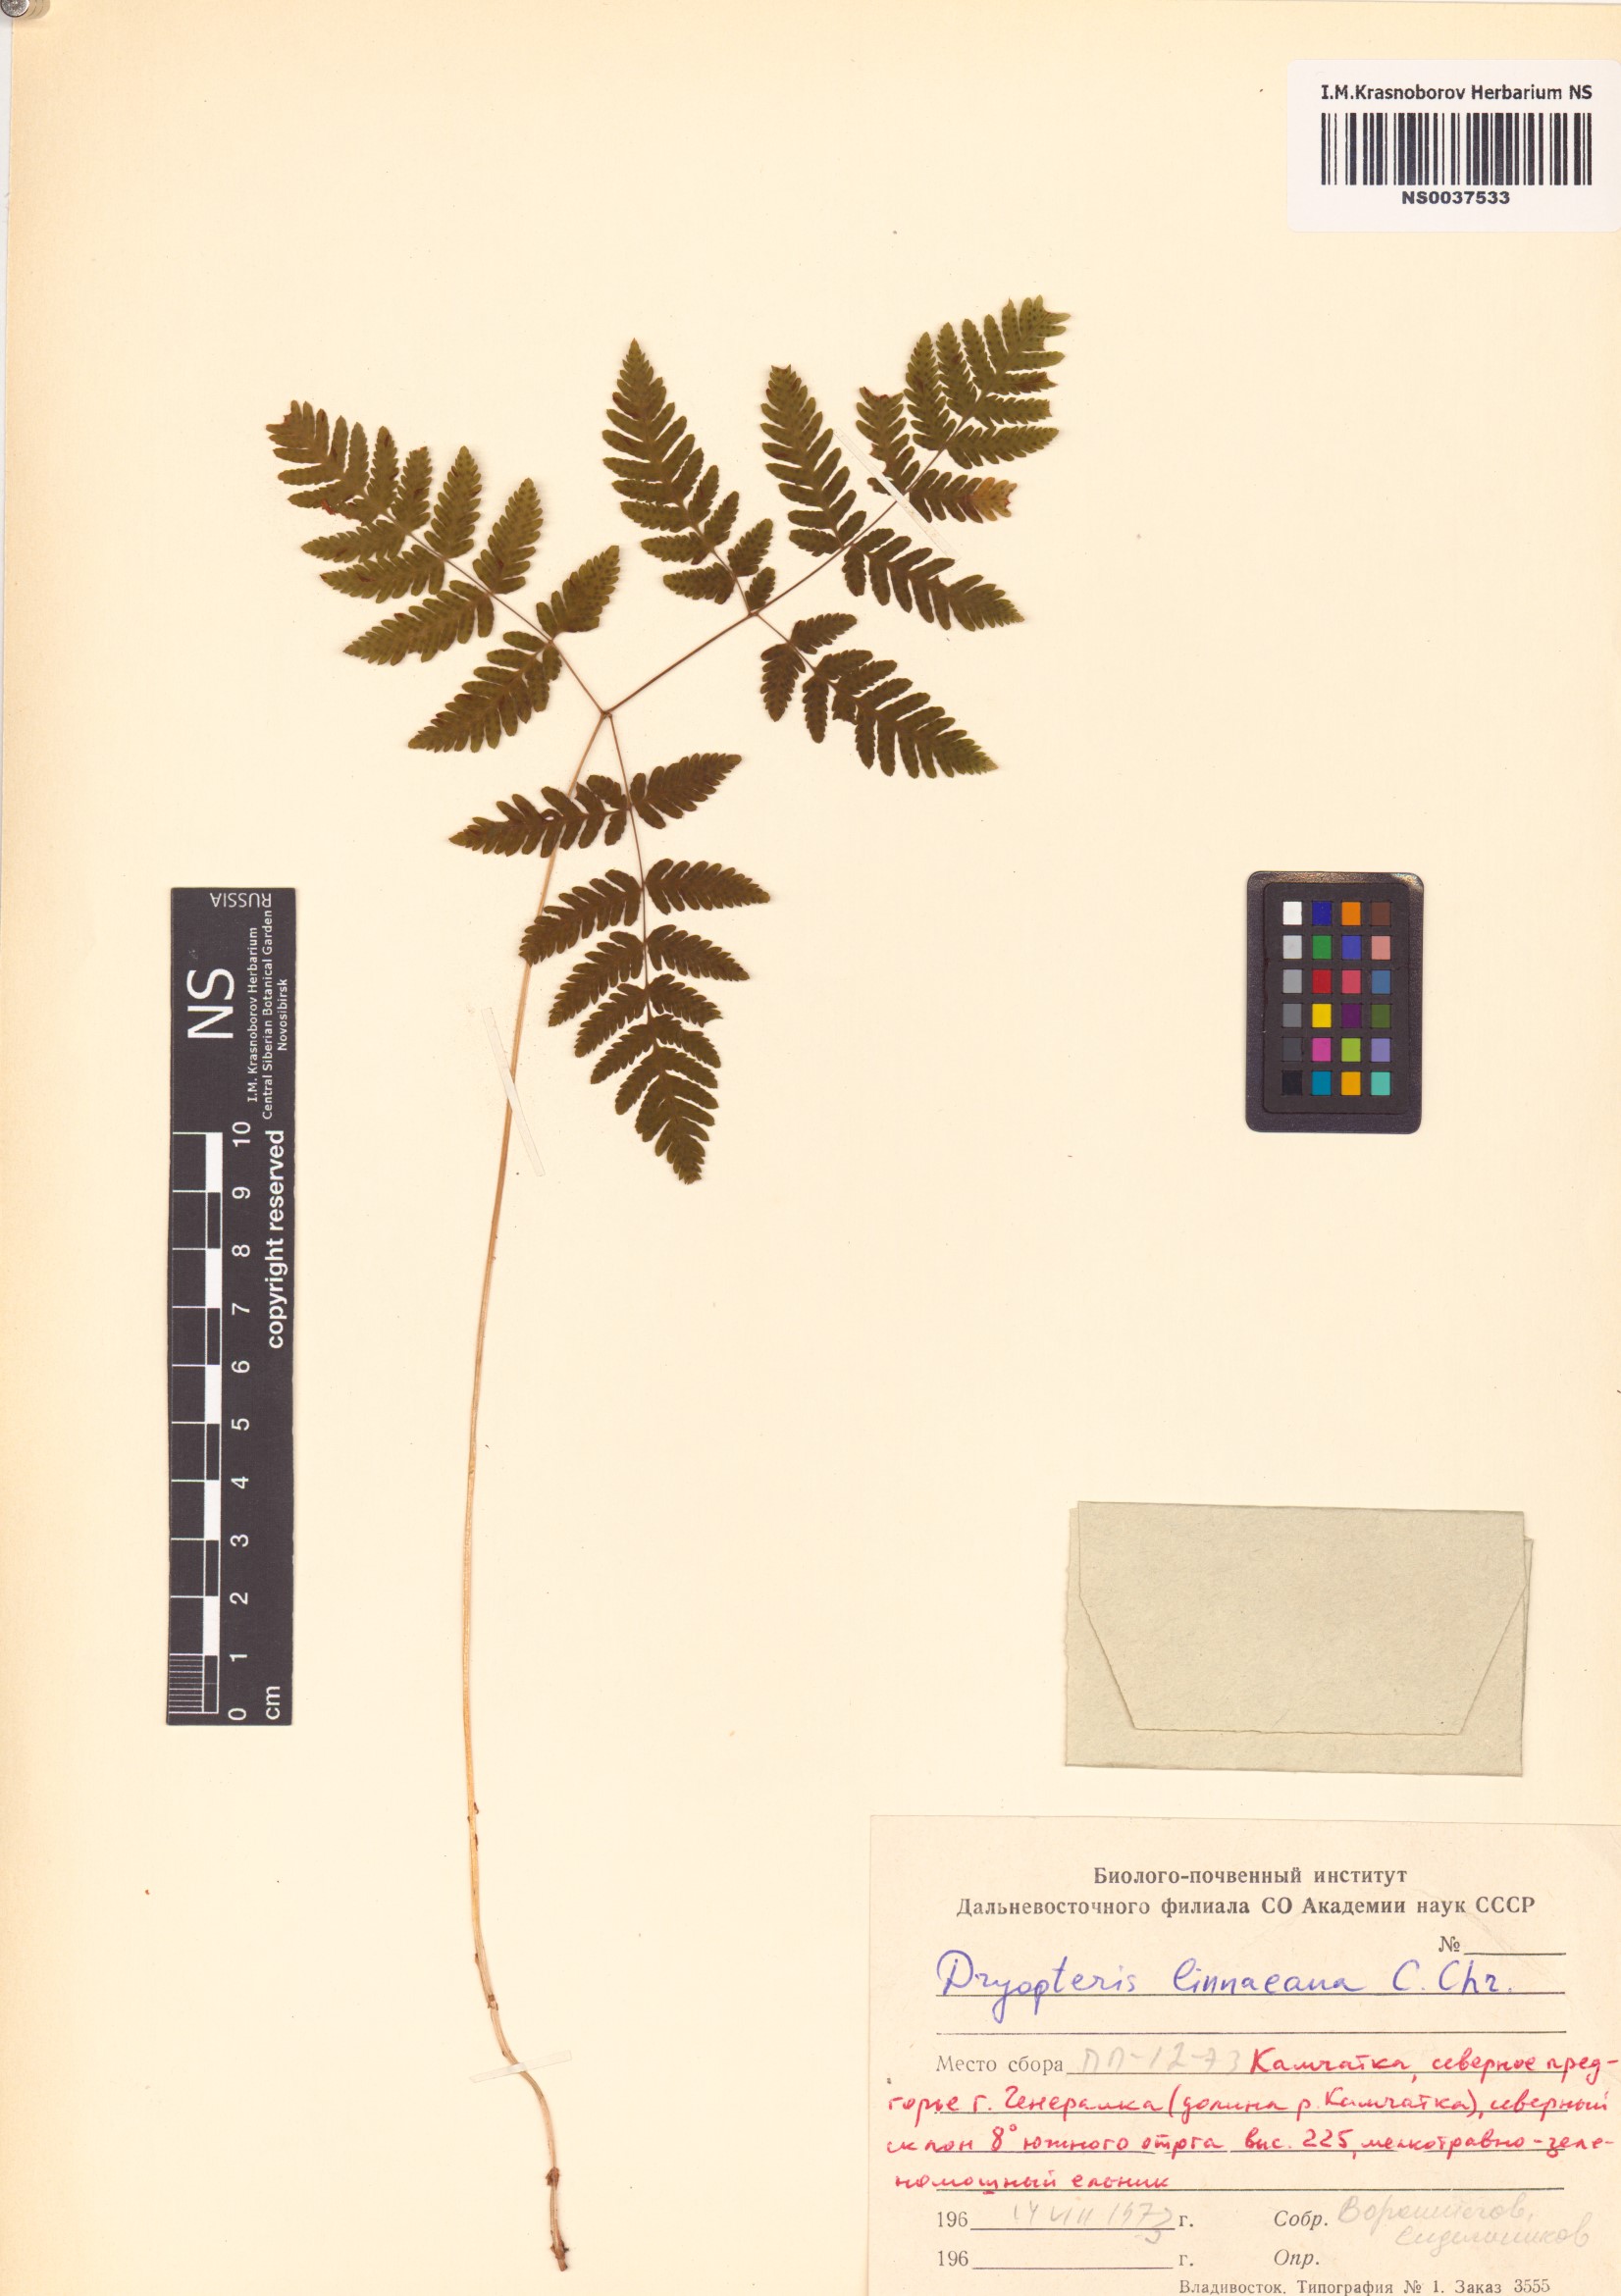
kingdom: Plantae
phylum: Tracheophyta
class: Polypodiopsida
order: Polypodiales
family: Cystopteridaceae
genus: Gymnocarpium
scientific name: Gymnocarpium dryopteris
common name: Oak fern
